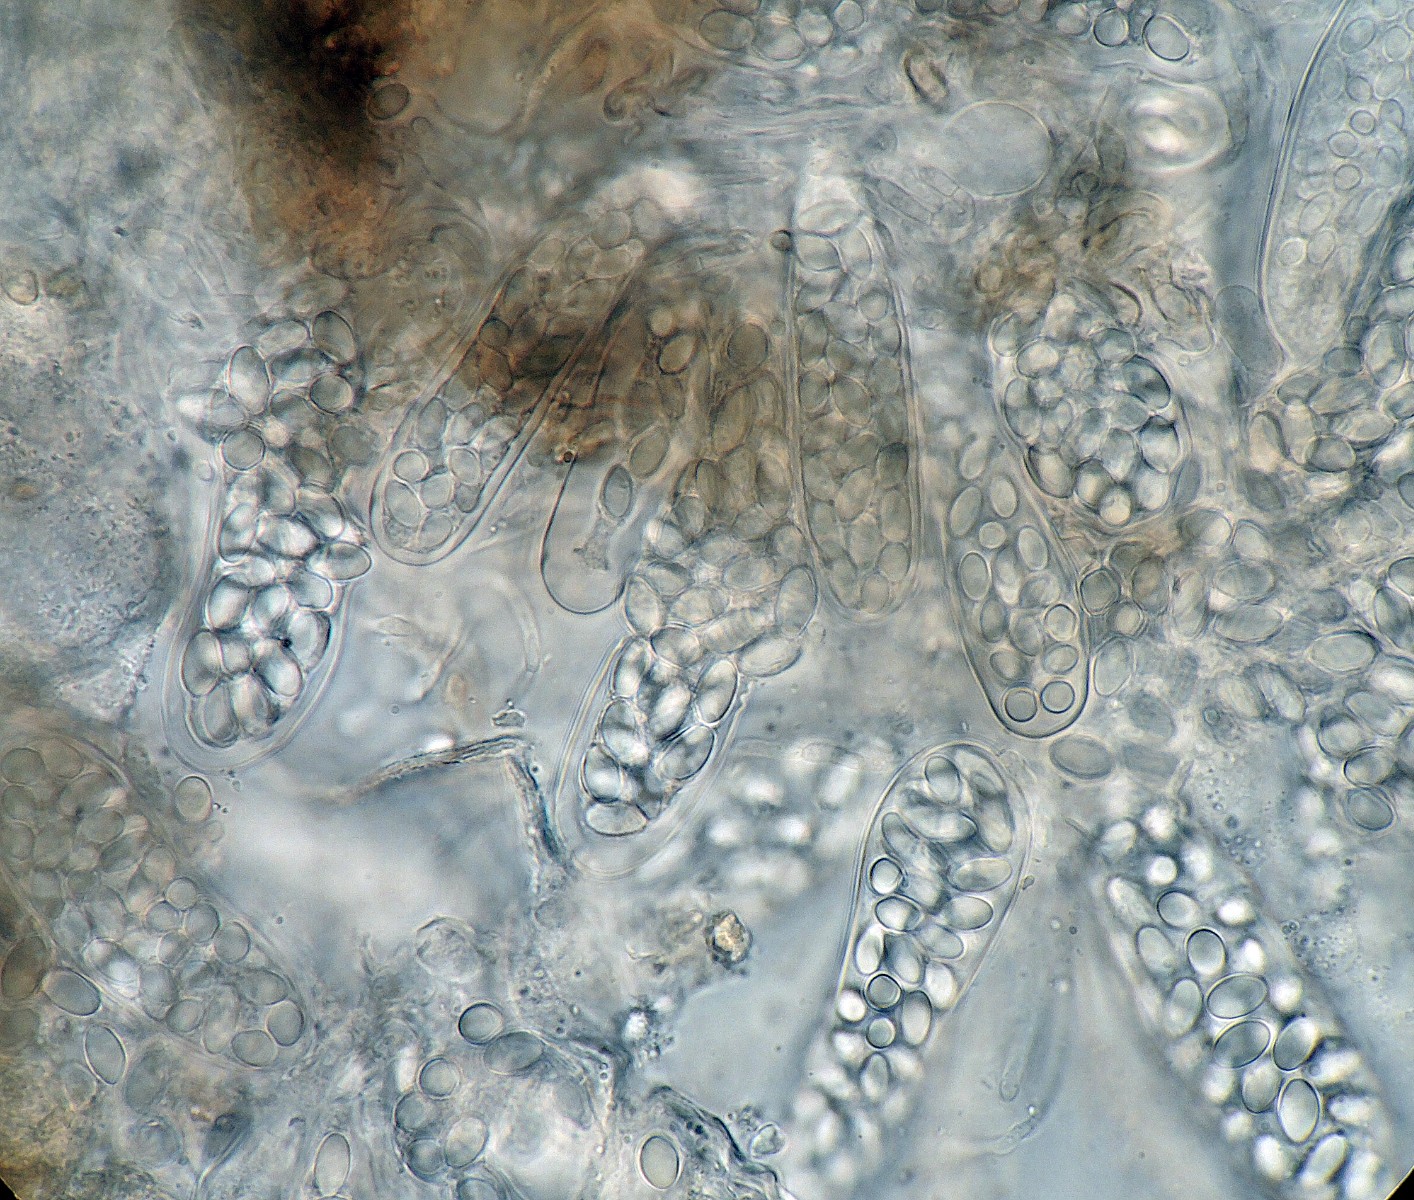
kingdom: Fungi
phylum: Ascomycota
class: Leotiomycetes
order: Thelebolales
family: Thelebolaceae
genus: Thelebolus
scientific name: Thelebolus stercoreus
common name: mangesporet småbæger
